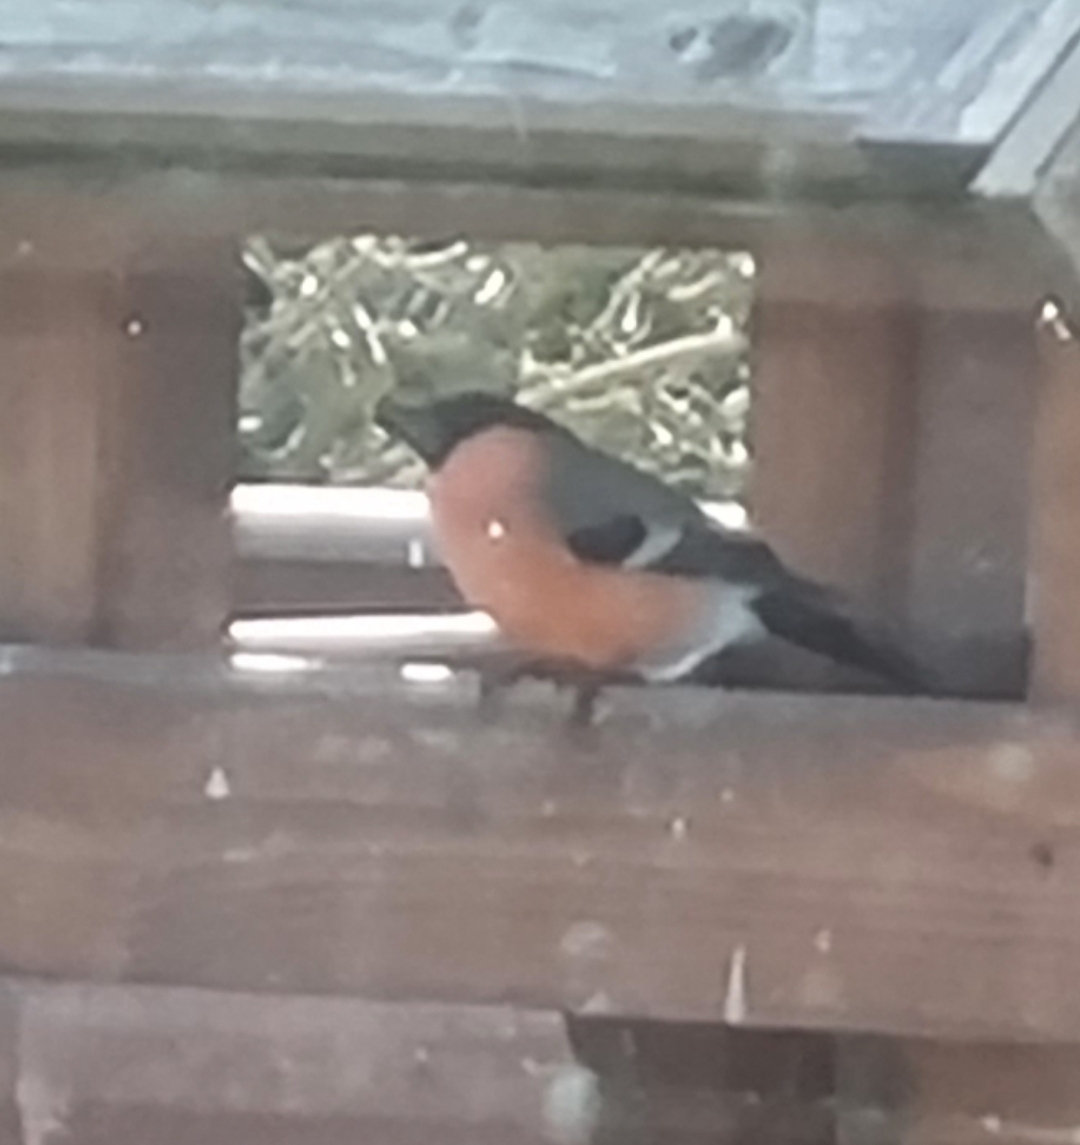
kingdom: Animalia
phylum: Chordata
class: Aves
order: Passeriformes
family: Fringillidae
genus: Pyrrhula
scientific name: Pyrrhula pyrrhula
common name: Dompap
